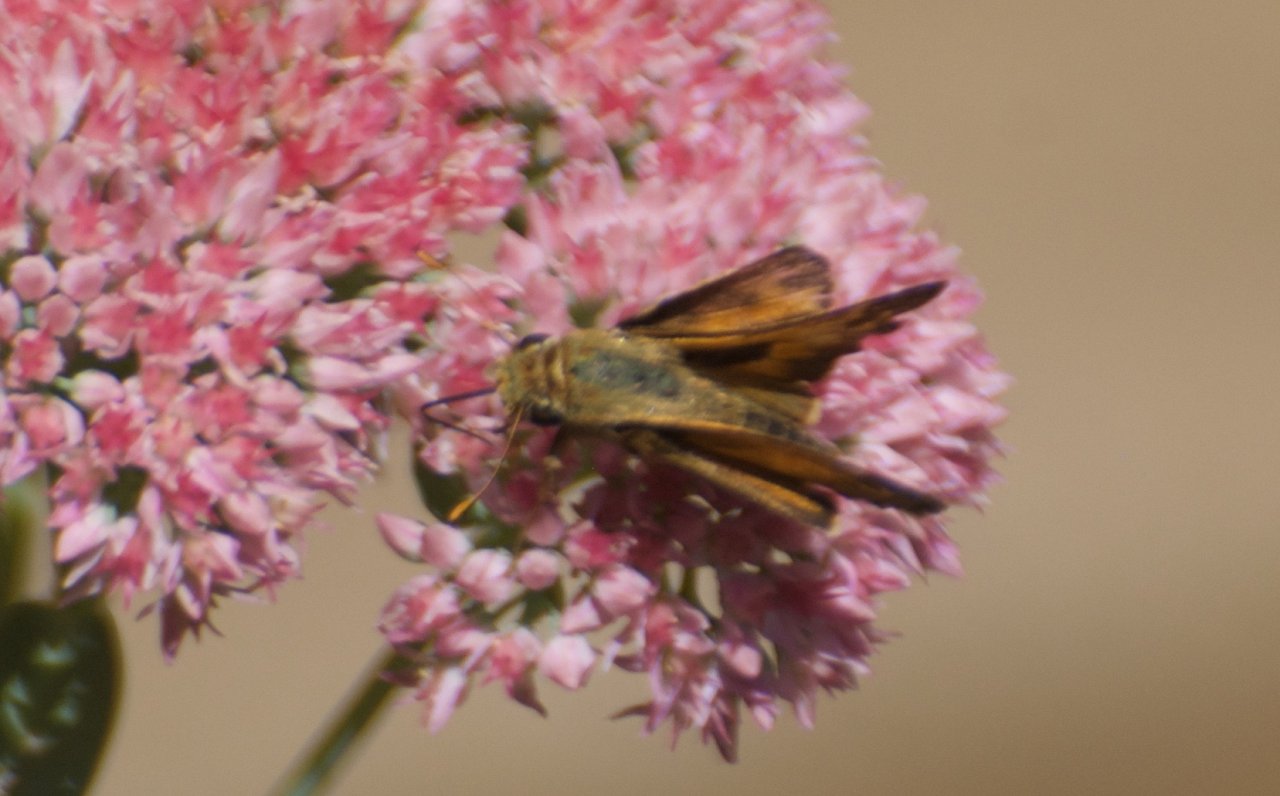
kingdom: Animalia
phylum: Arthropoda
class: Insecta
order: Lepidoptera
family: Hesperiidae
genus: Atalopedes
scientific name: Atalopedes campestris
